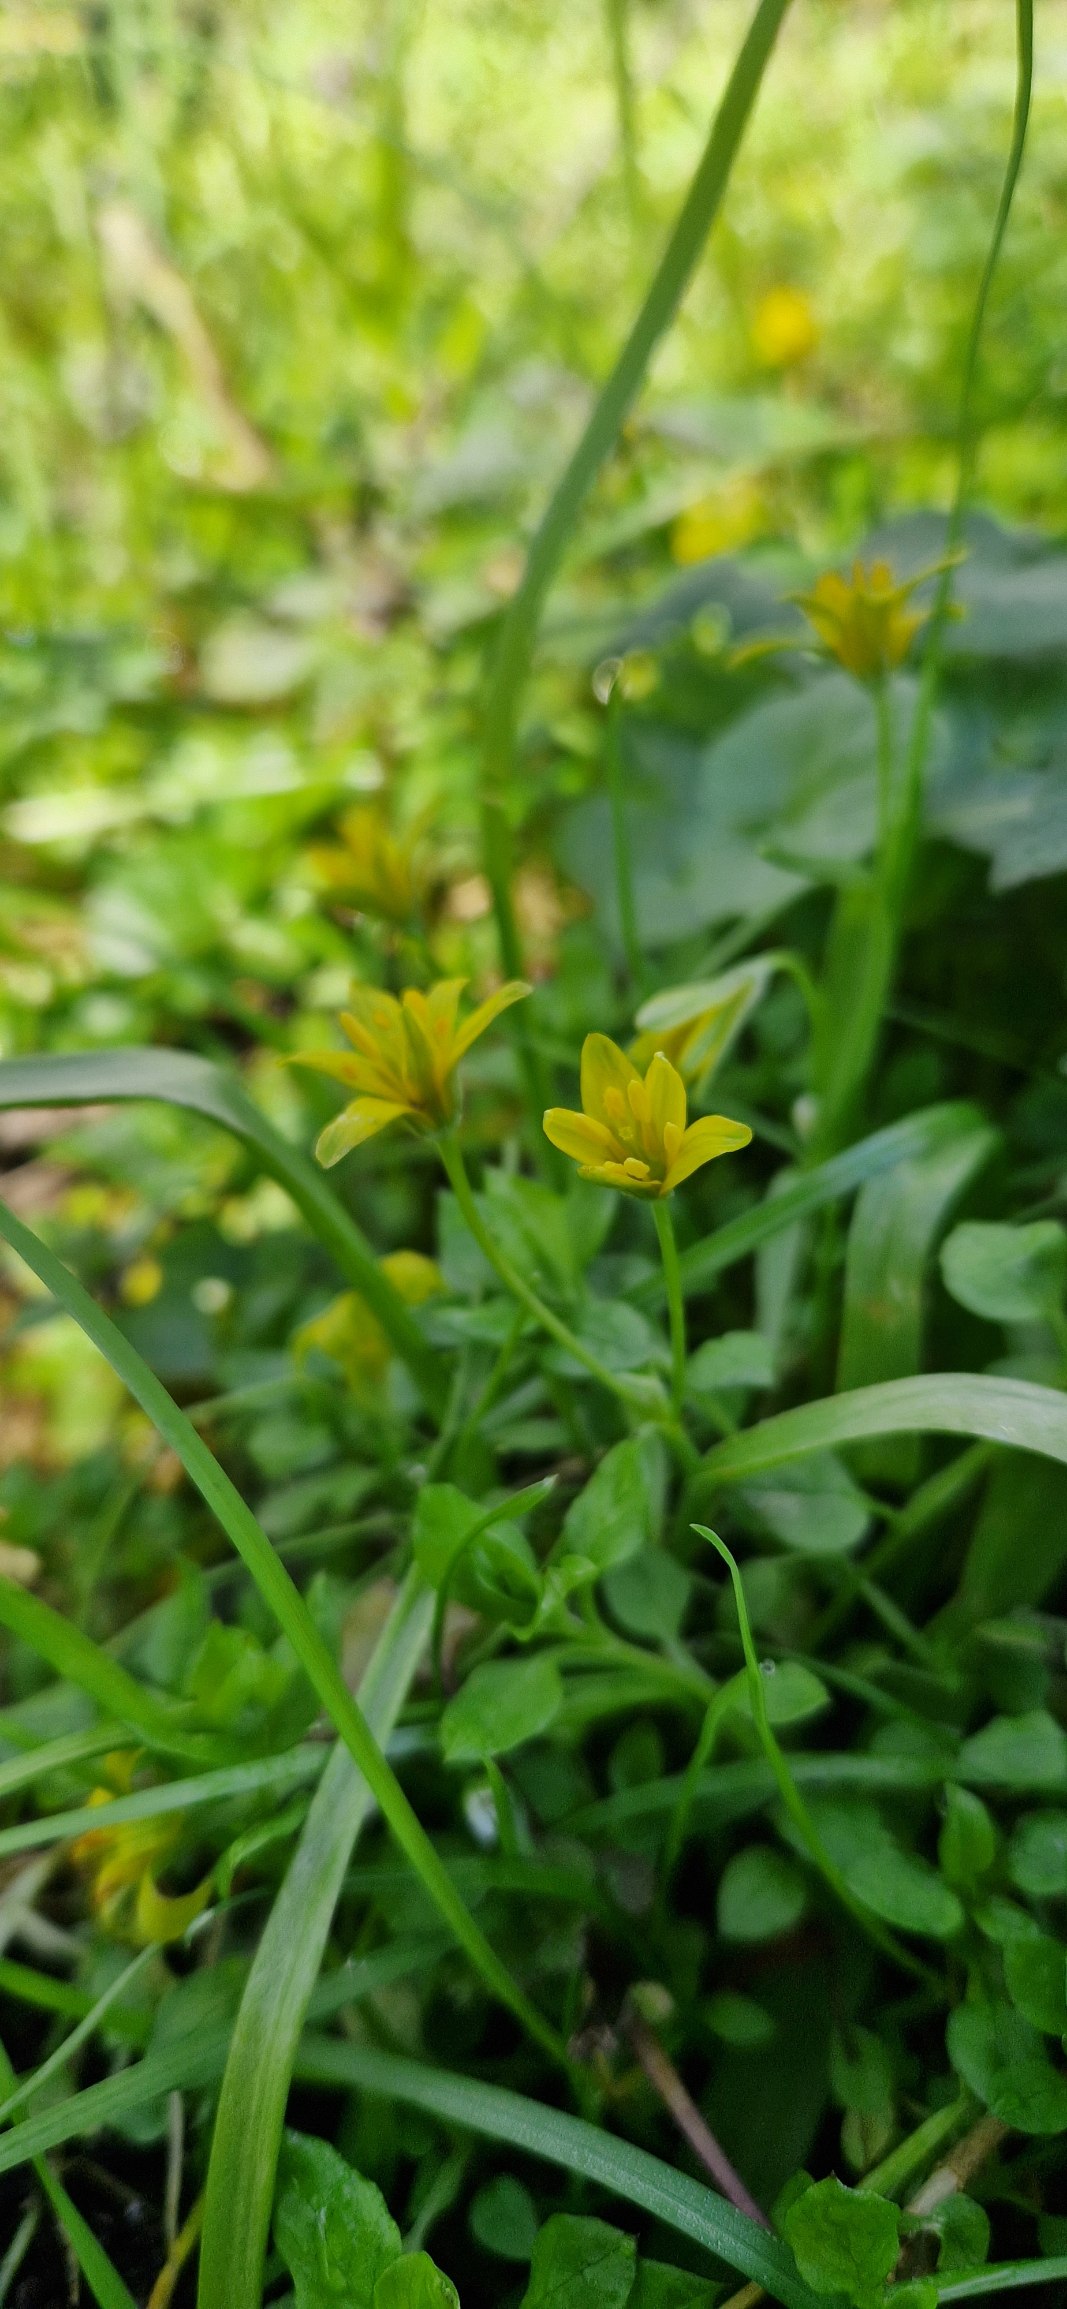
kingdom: Plantae
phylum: Tracheophyta
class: Liliopsida
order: Liliales
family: Liliaceae
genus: Gagea
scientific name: Gagea lutea
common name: Almindelig guldstjerne
